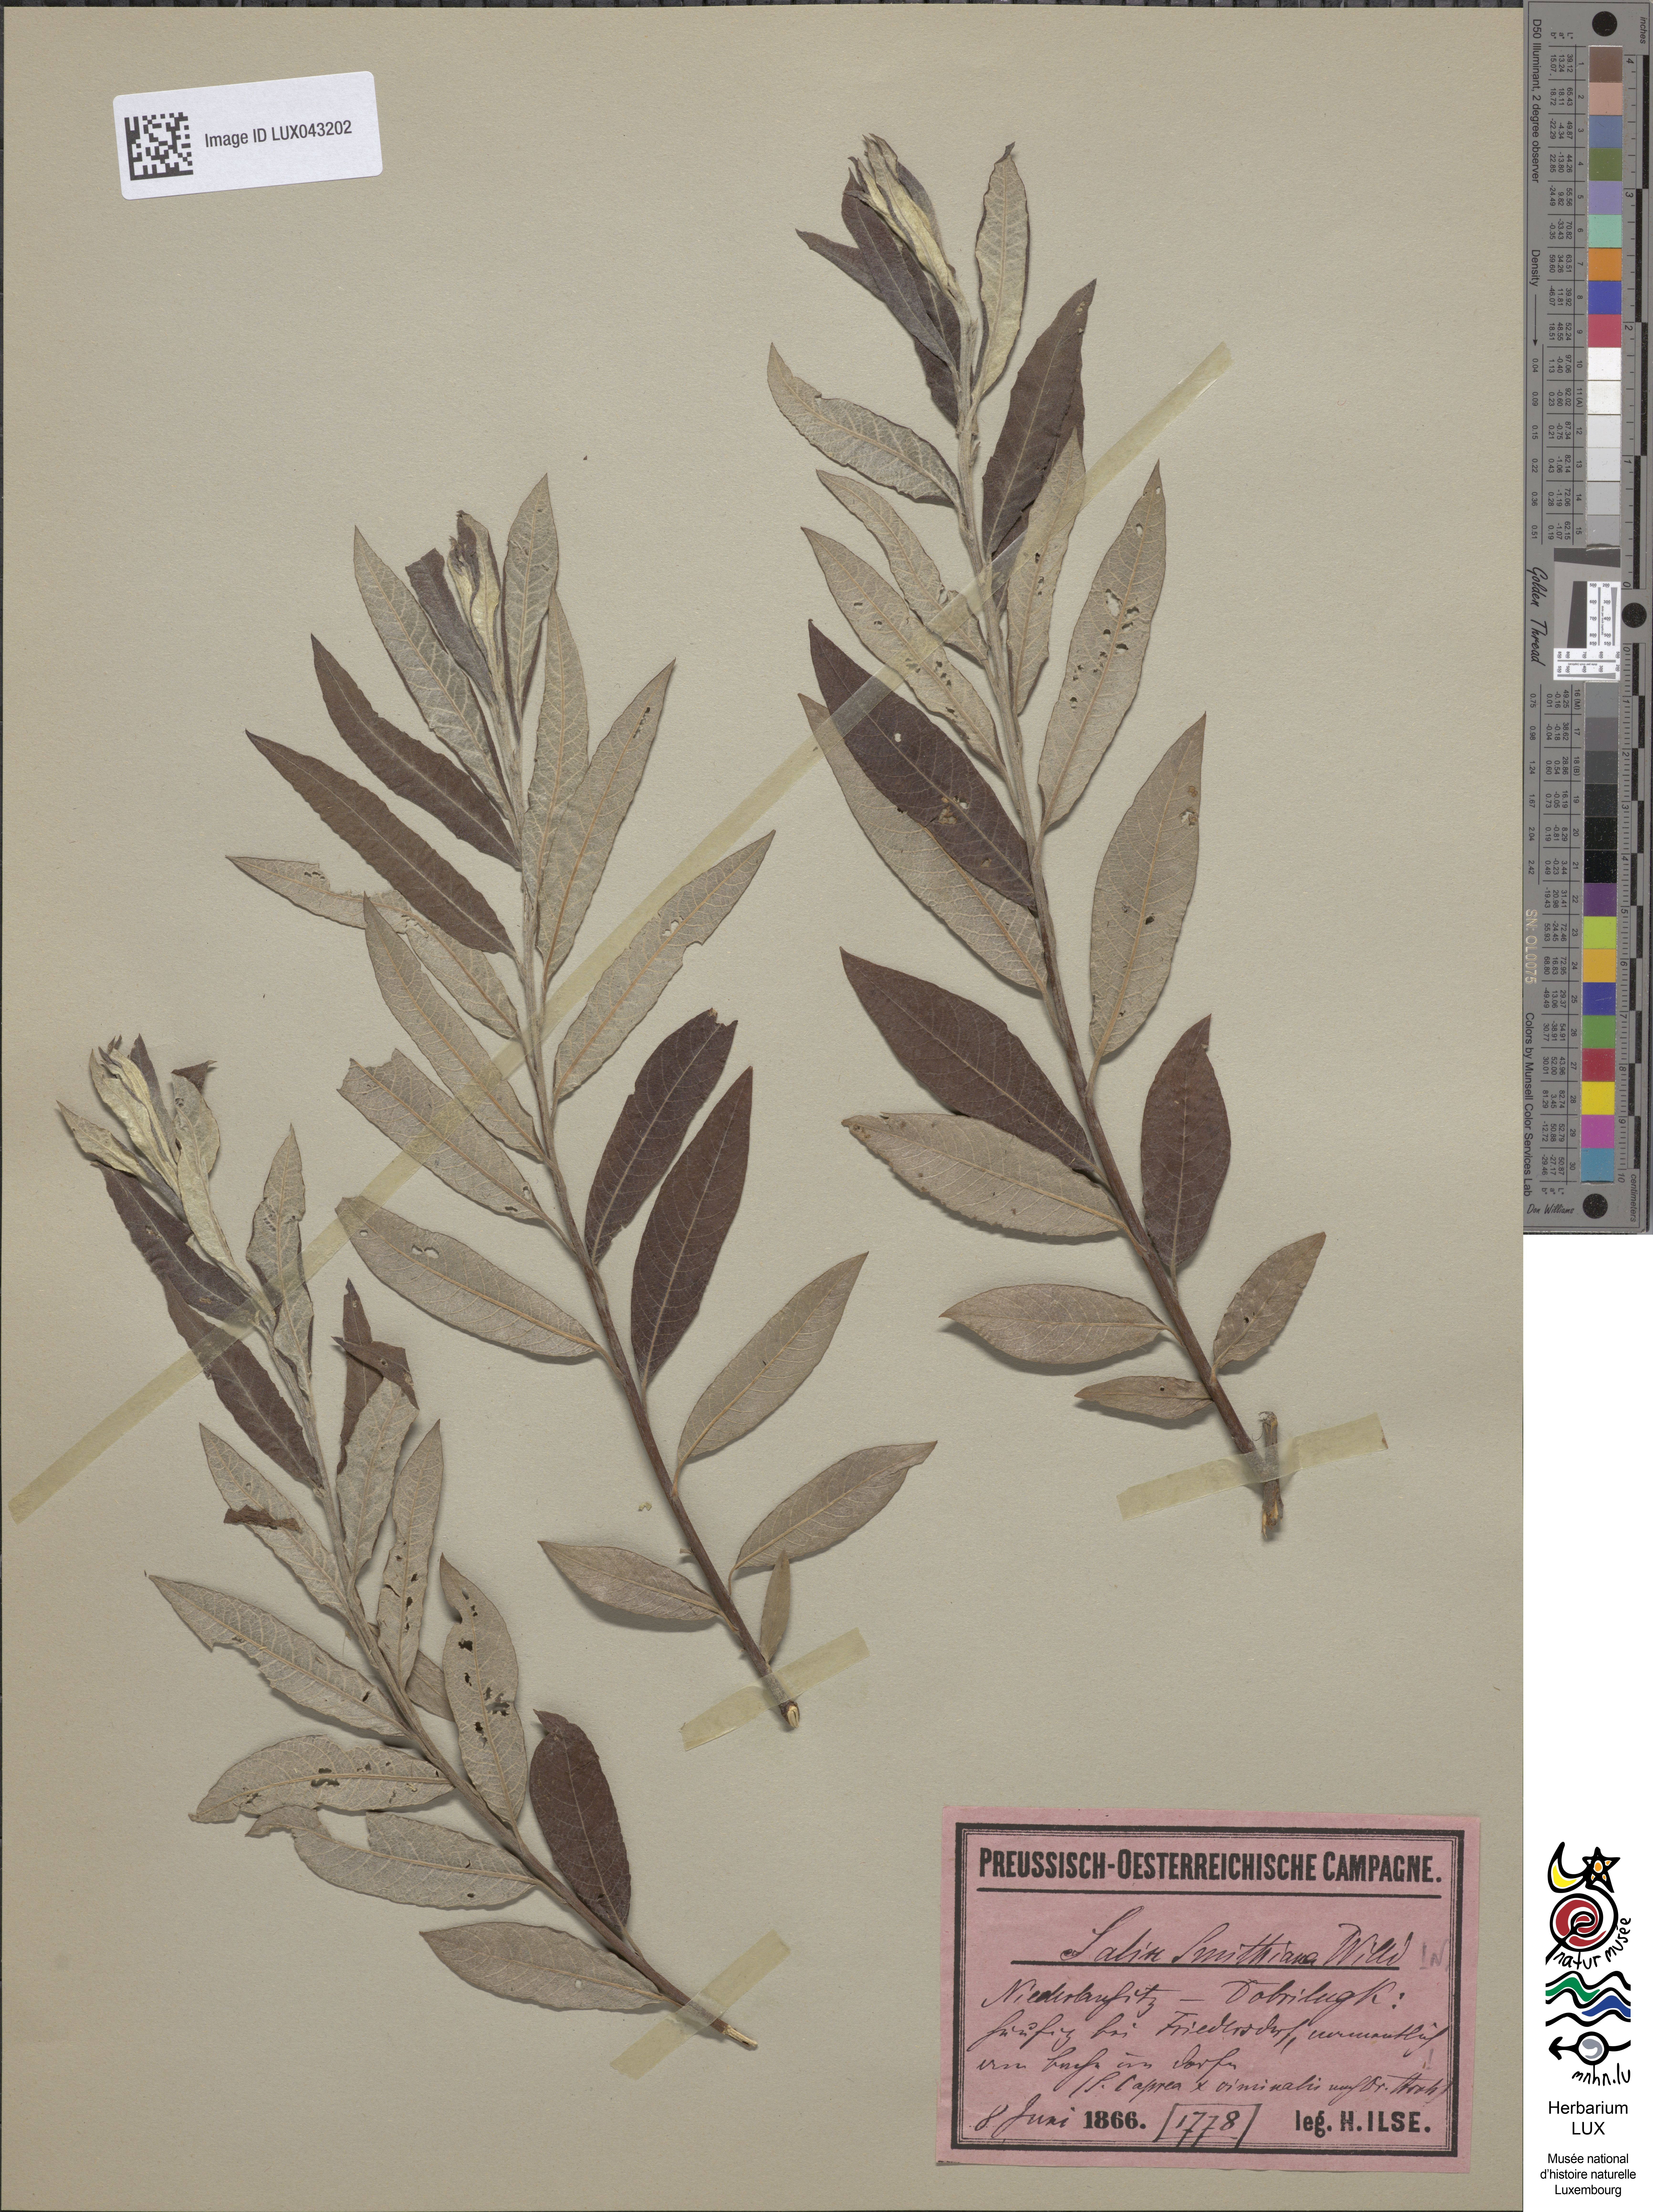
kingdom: Plantae
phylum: Tracheophyta
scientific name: Tracheophyta
